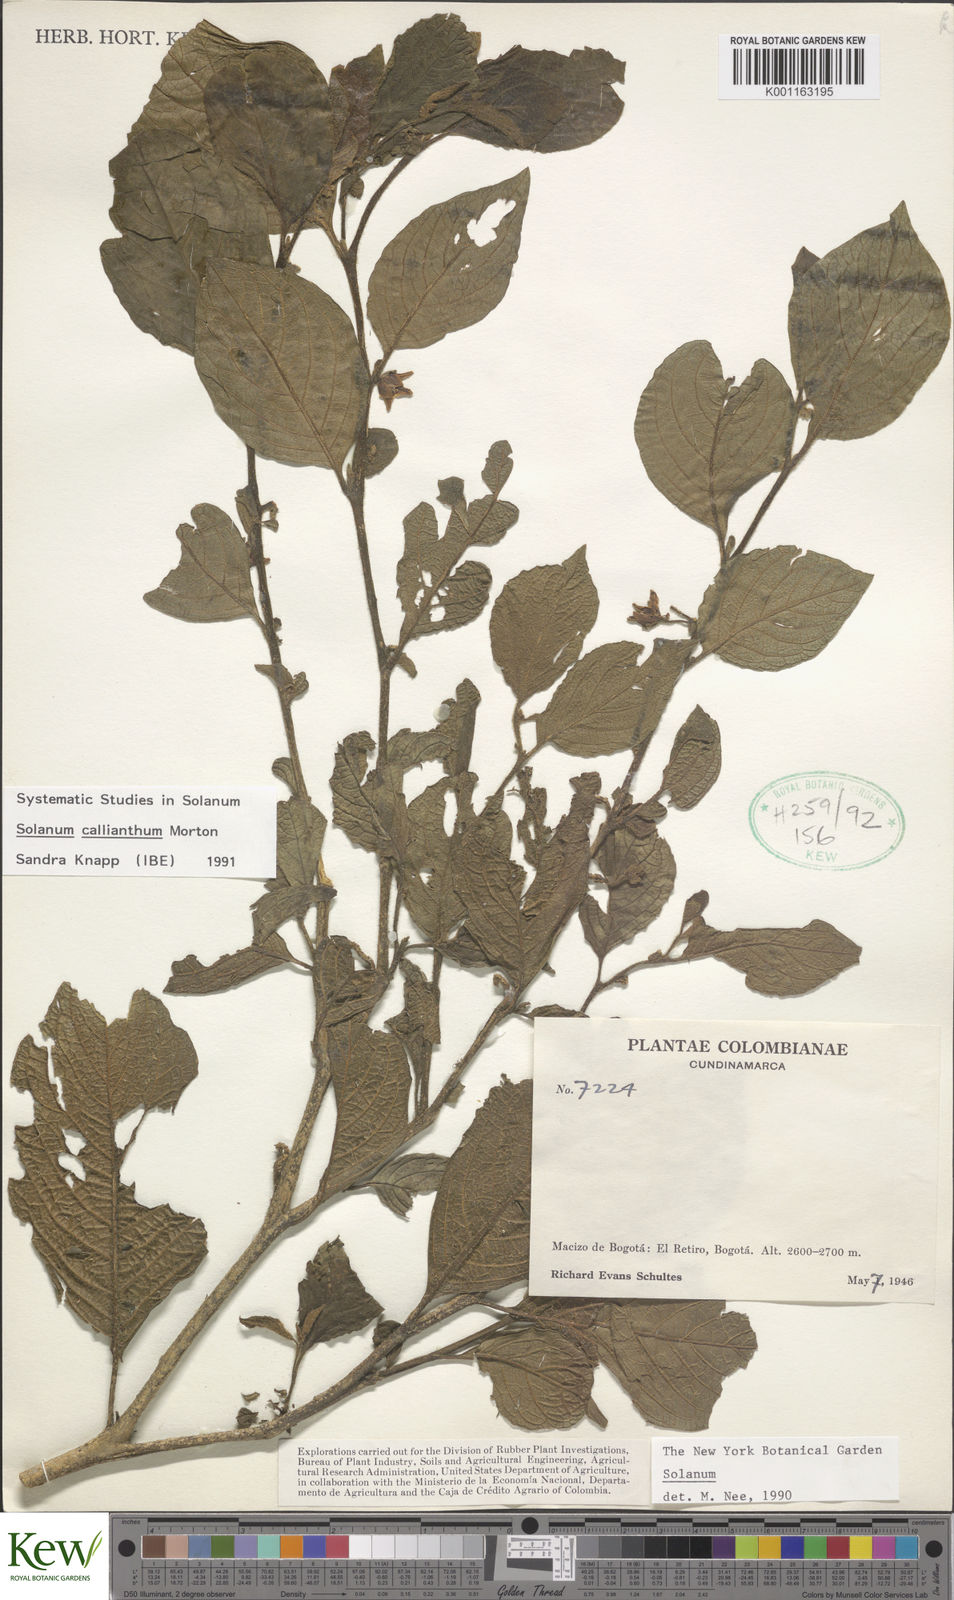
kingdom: Plantae
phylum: Tracheophyta
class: Magnoliopsida
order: Solanales
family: Solanaceae
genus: Solanum
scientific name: Solanum callianthum
